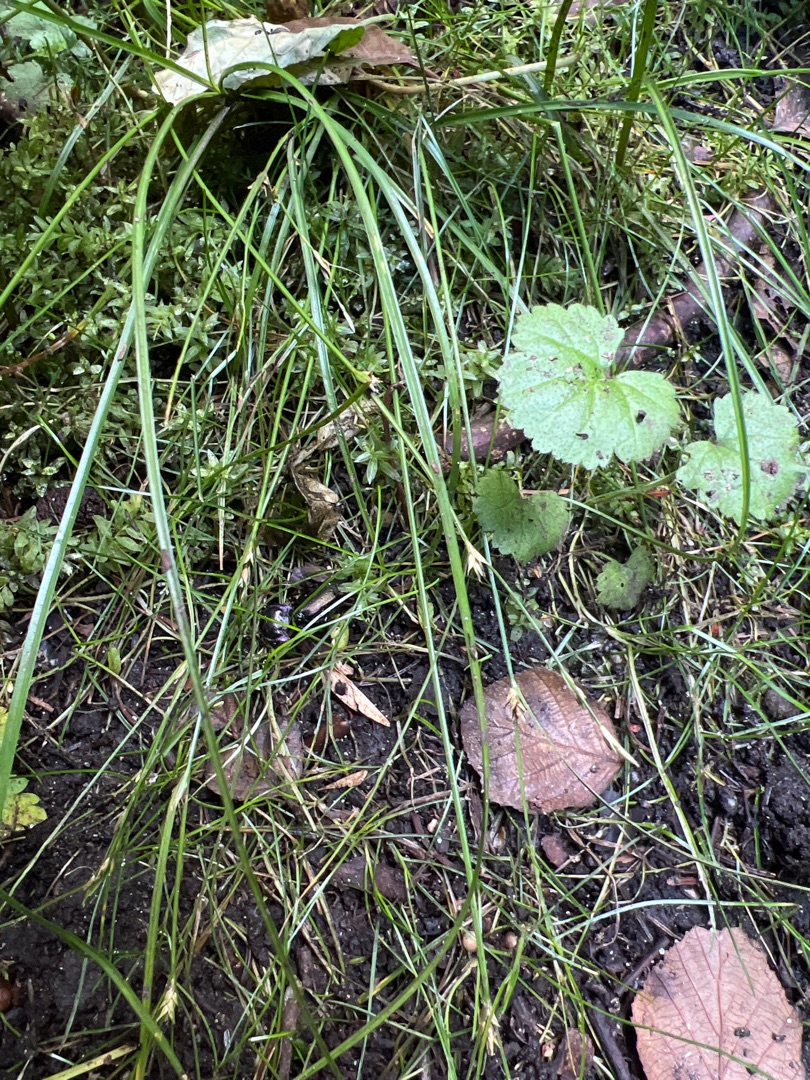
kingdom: Plantae
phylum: Tracheophyta
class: Liliopsida
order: Poales
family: Cyperaceae
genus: Carex
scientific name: Carex remota
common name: Akselblomstret star
